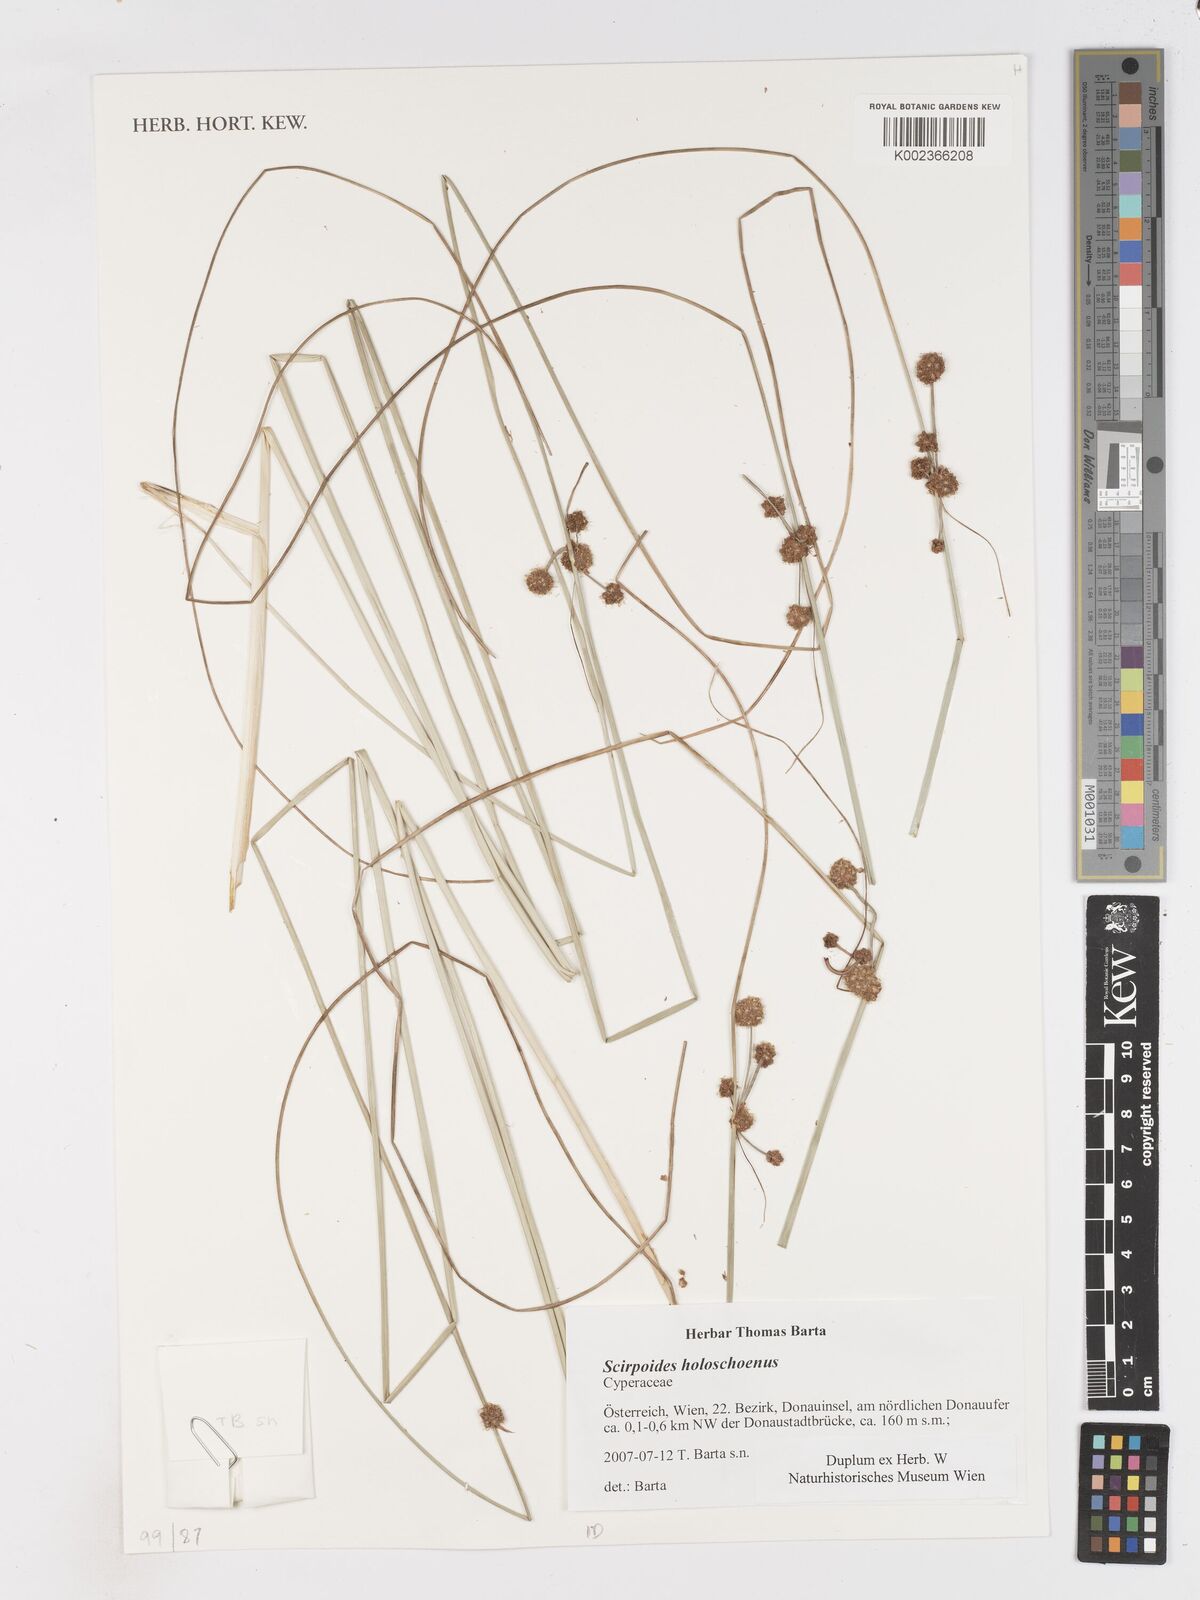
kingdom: Plantae
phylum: Tracheophyta
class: Liliopsida
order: Poales
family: Cyperaceae
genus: Scirpoides
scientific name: Scirpoides holoschoenus
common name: Round-headed club-rush
